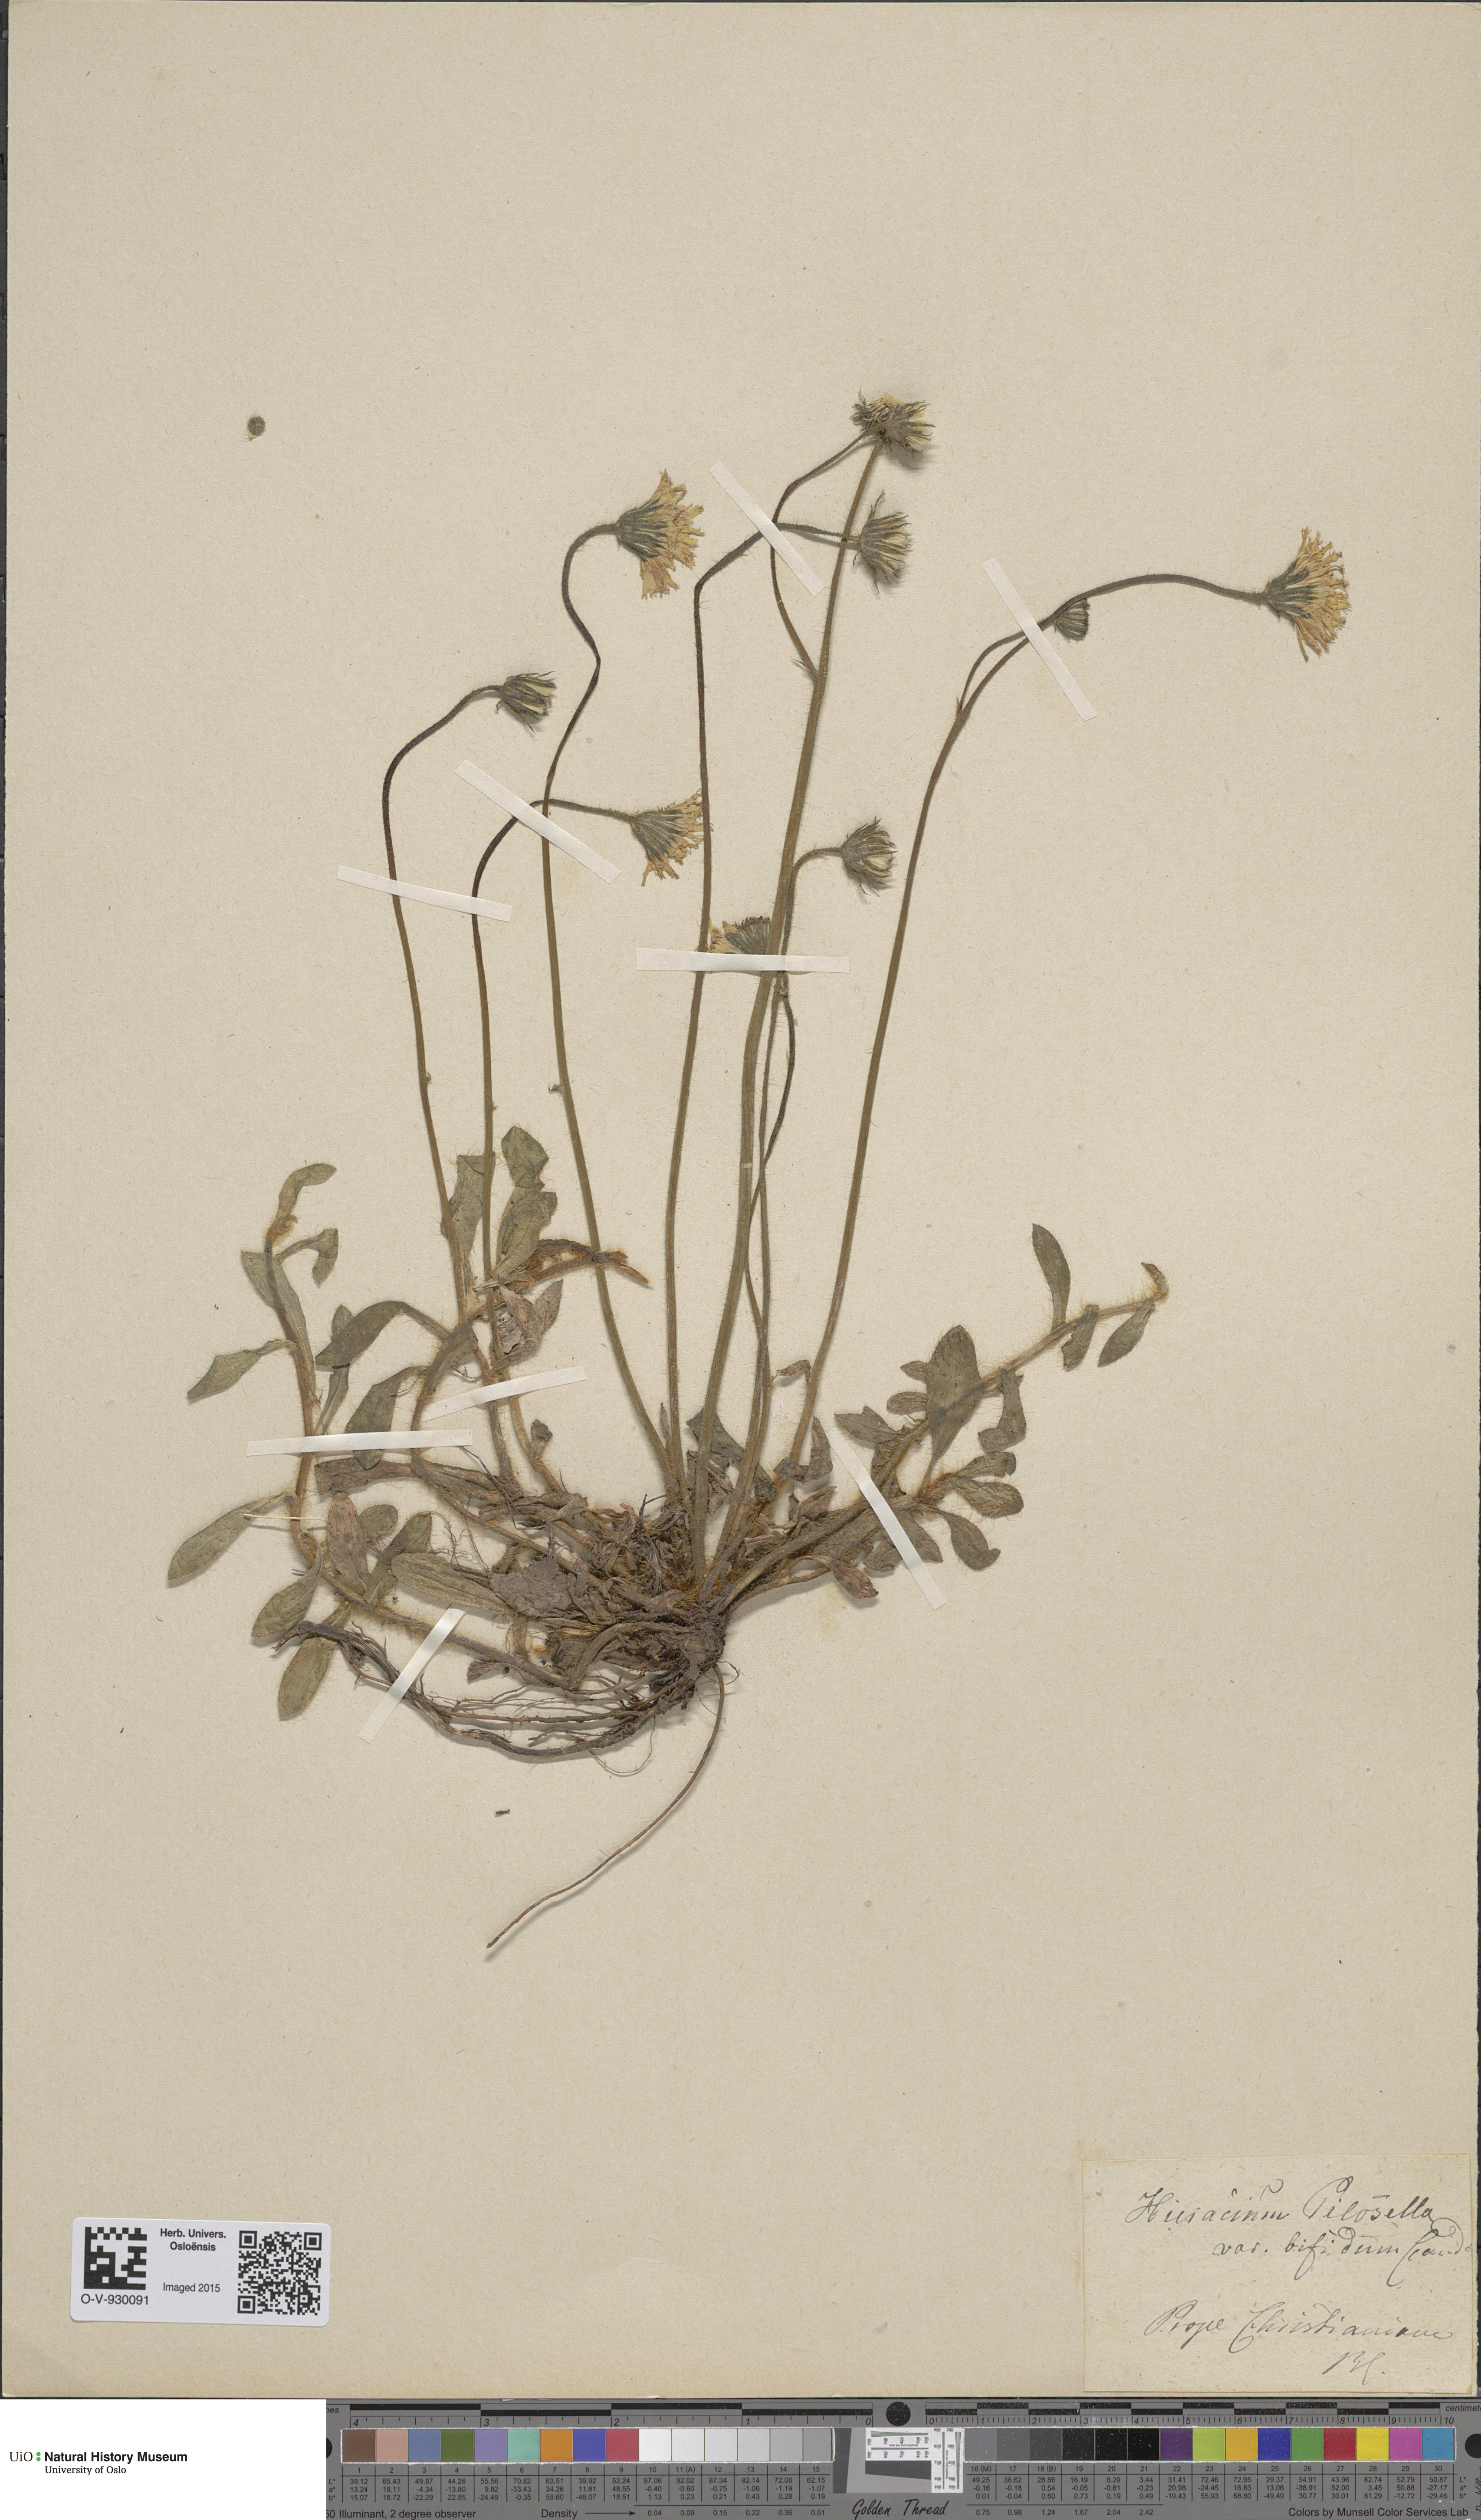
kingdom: Plantae
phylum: Tracheophyta
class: Magnoliopsida
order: Asterales
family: Asteraceae
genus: Pilosella
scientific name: Pilosella officinarum
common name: Mouse-ear hawkweed
